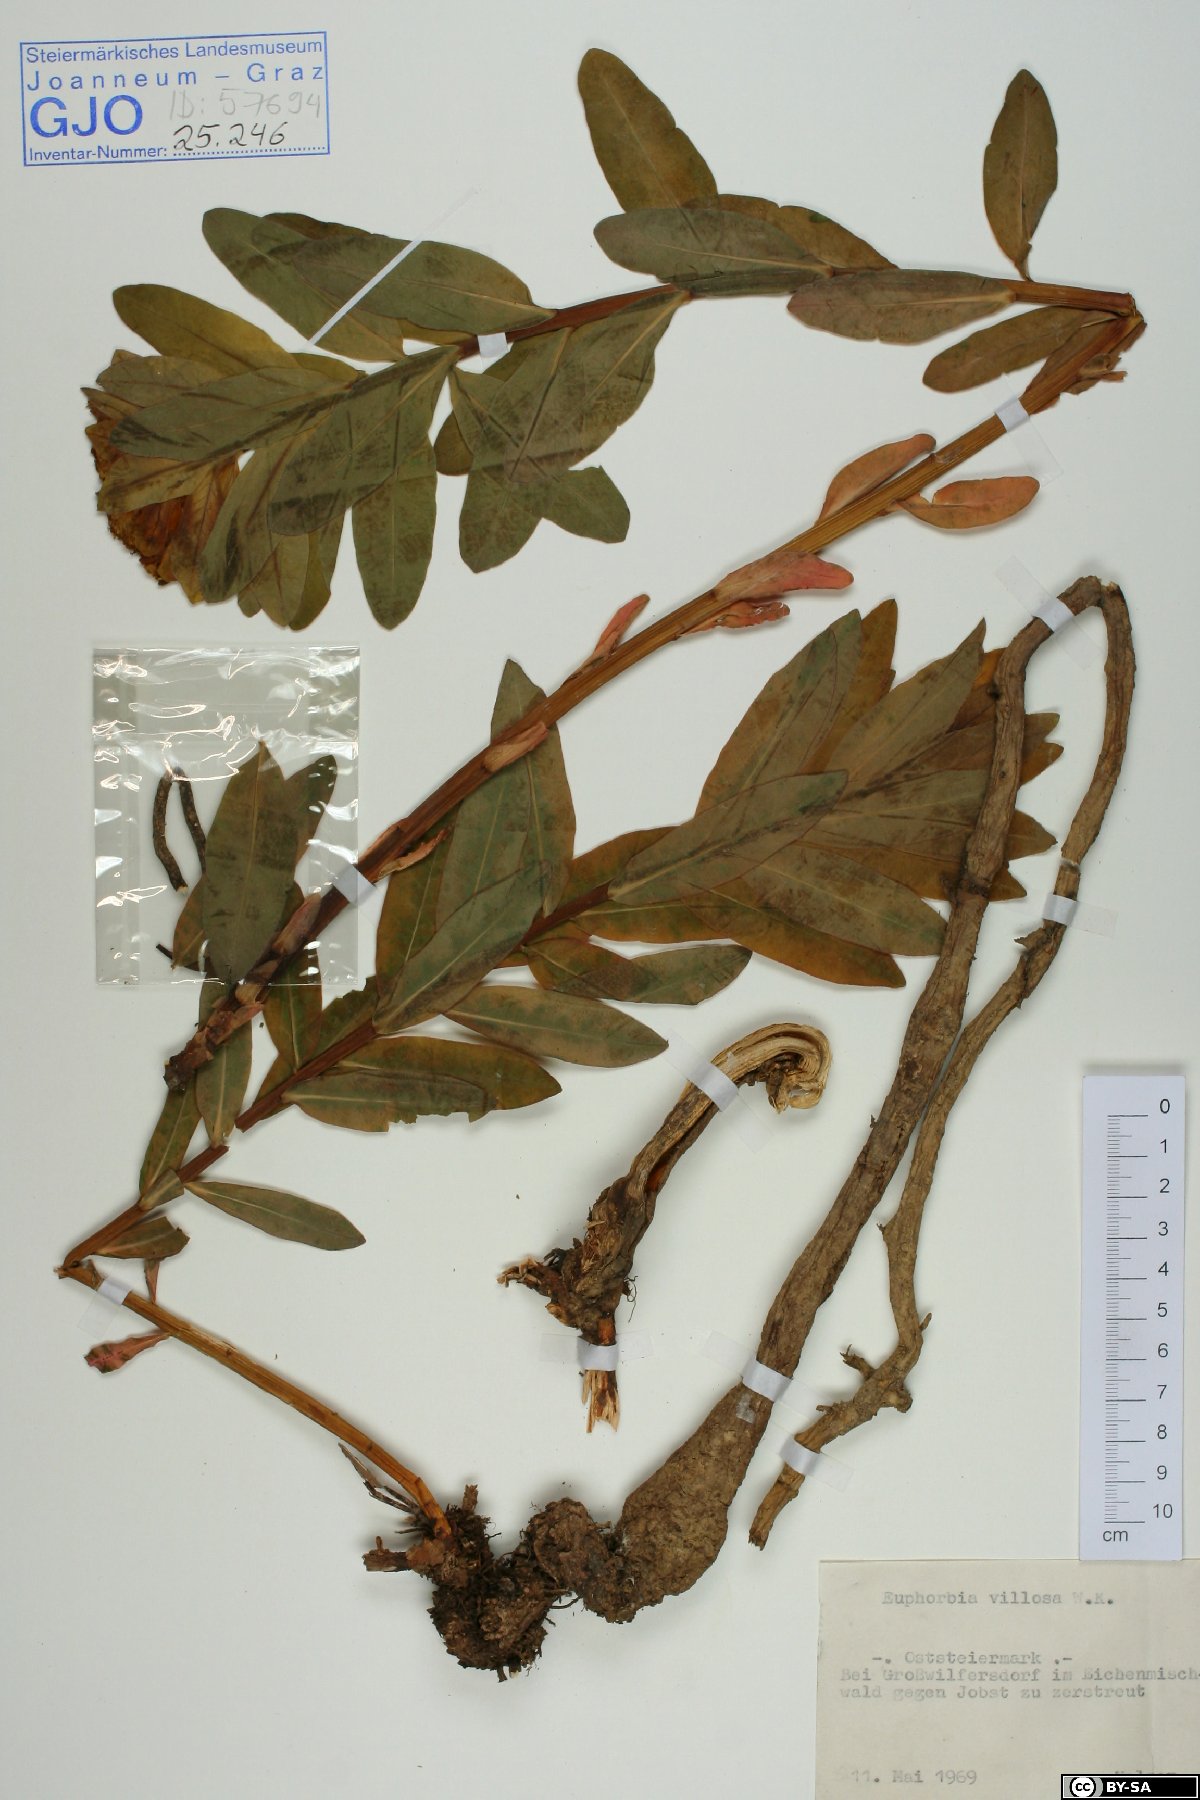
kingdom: Plantae
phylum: Tracheophyta
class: Magnoliopsida
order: Malpighiales
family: Euphorbiaceae
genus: Euphorbia
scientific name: Euphorbia illirica
